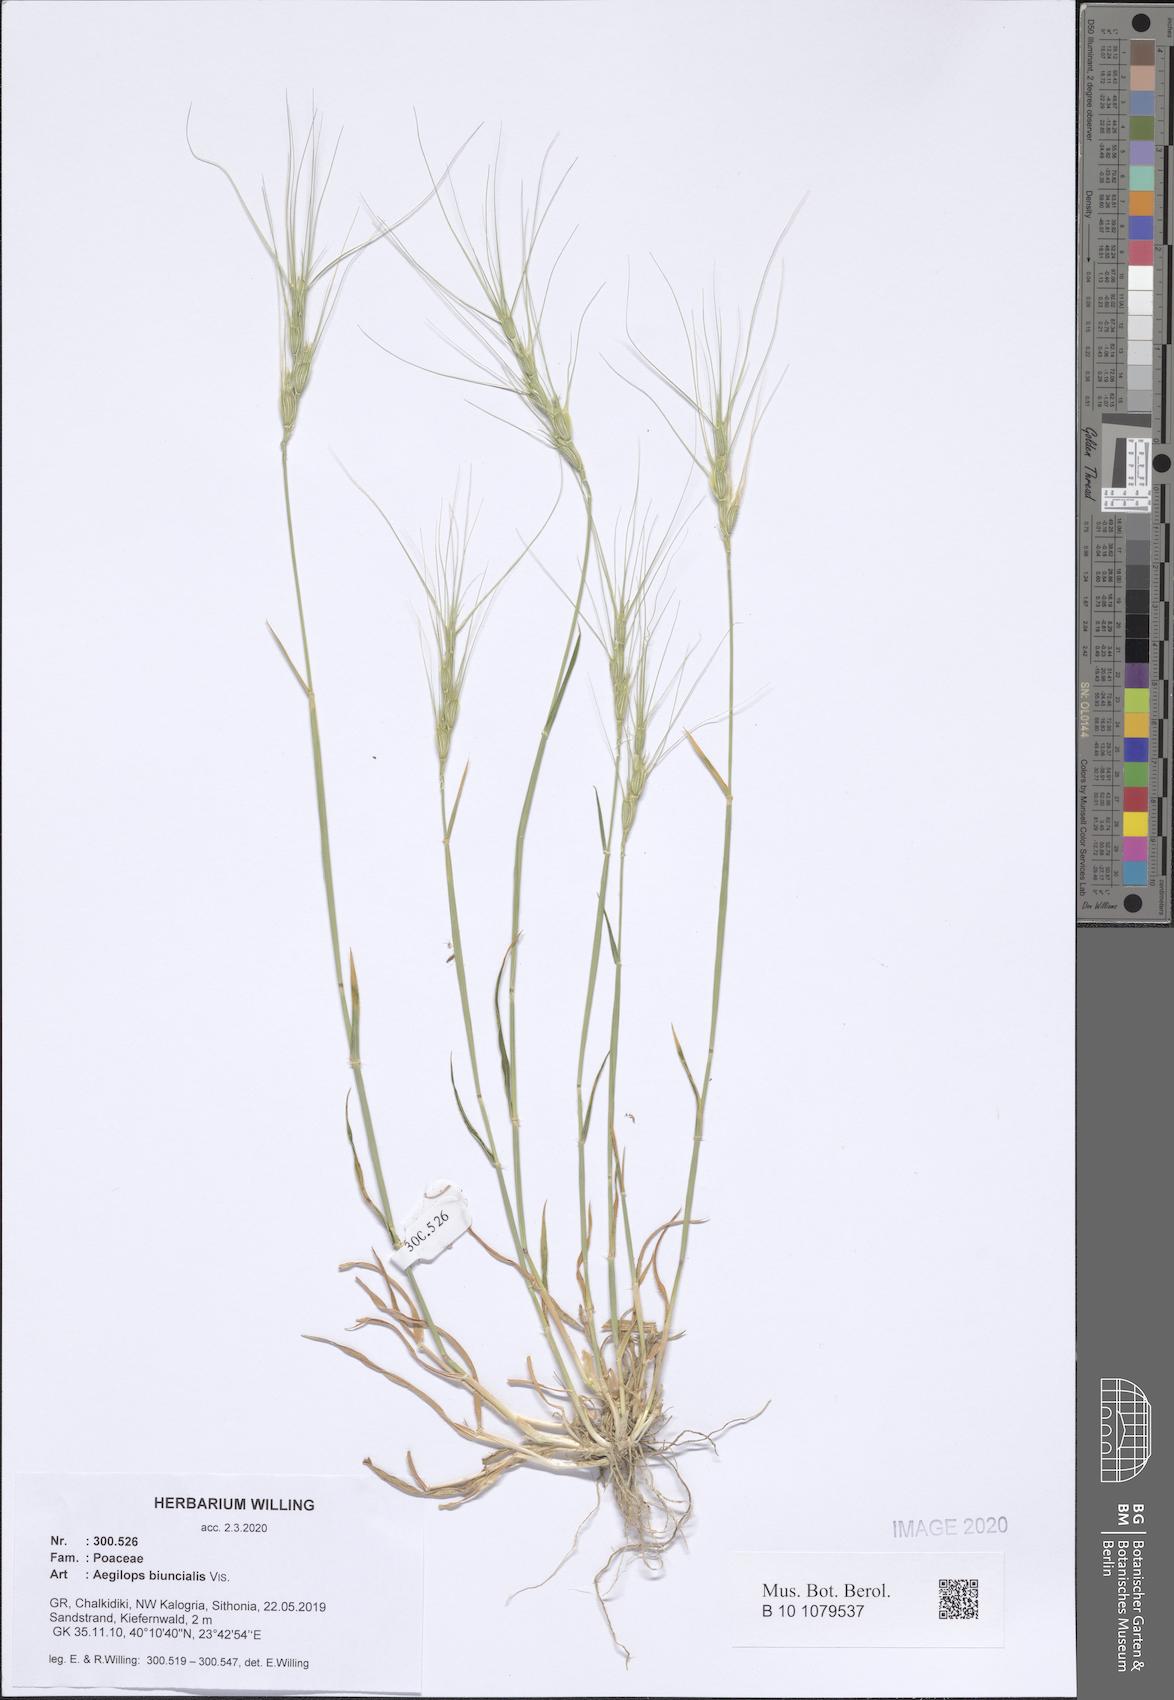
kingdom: Plantae
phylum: Tracheophyta
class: Liliopsida
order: Poales
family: Poaceae
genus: Aegilops
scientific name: Aegilops biuncialis
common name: Mediterranean aegilops
